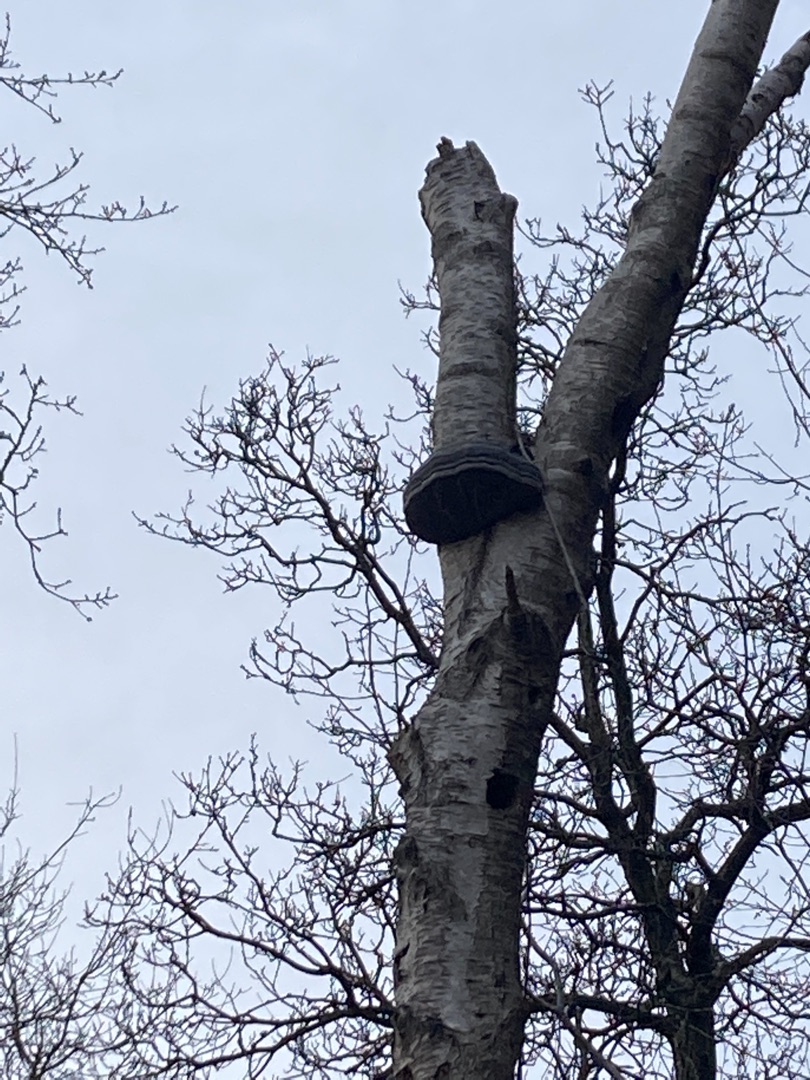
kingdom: Fungi
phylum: Basidiomycota
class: Agaricomycetes
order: Polyporales
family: Polyporaceae
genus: Fomes
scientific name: Fomes fomentarius
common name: Tøndersvamp
